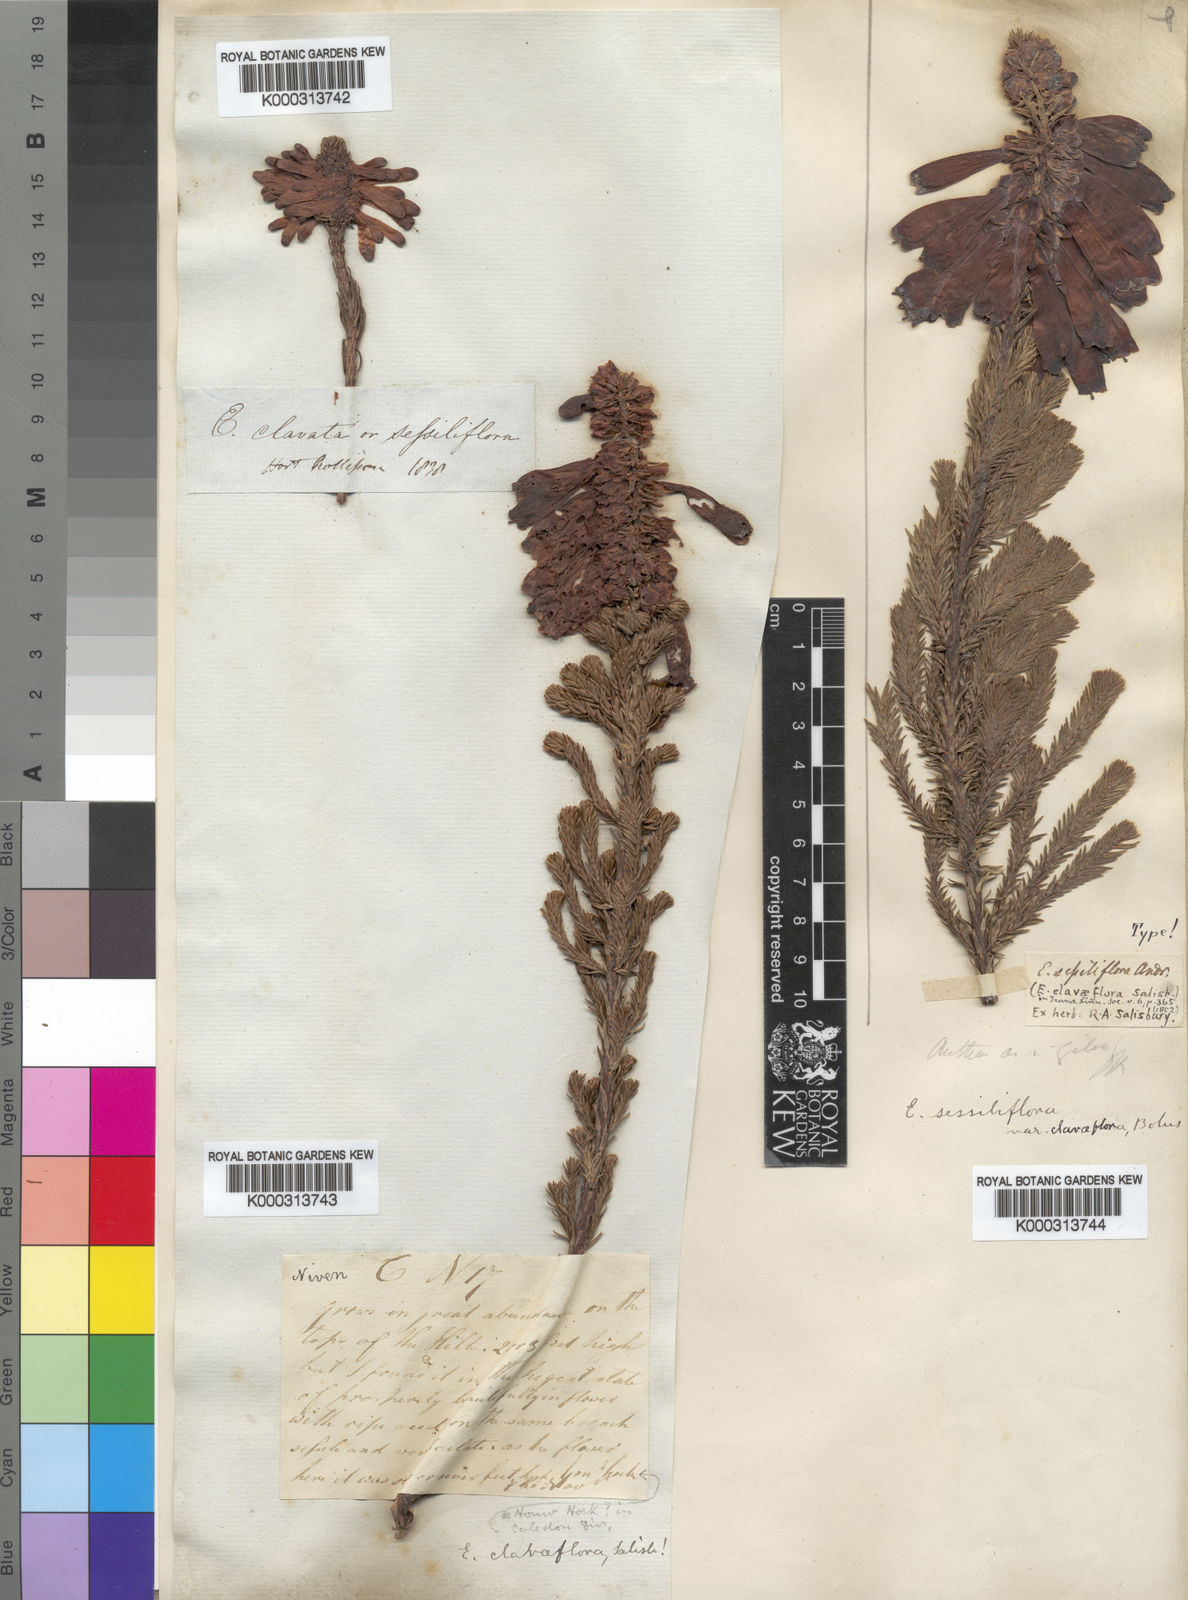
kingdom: Plantae
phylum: Tracheophyta
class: Magnoliopsida
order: Ericales
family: Ericaceae
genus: Erica
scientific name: Erica
